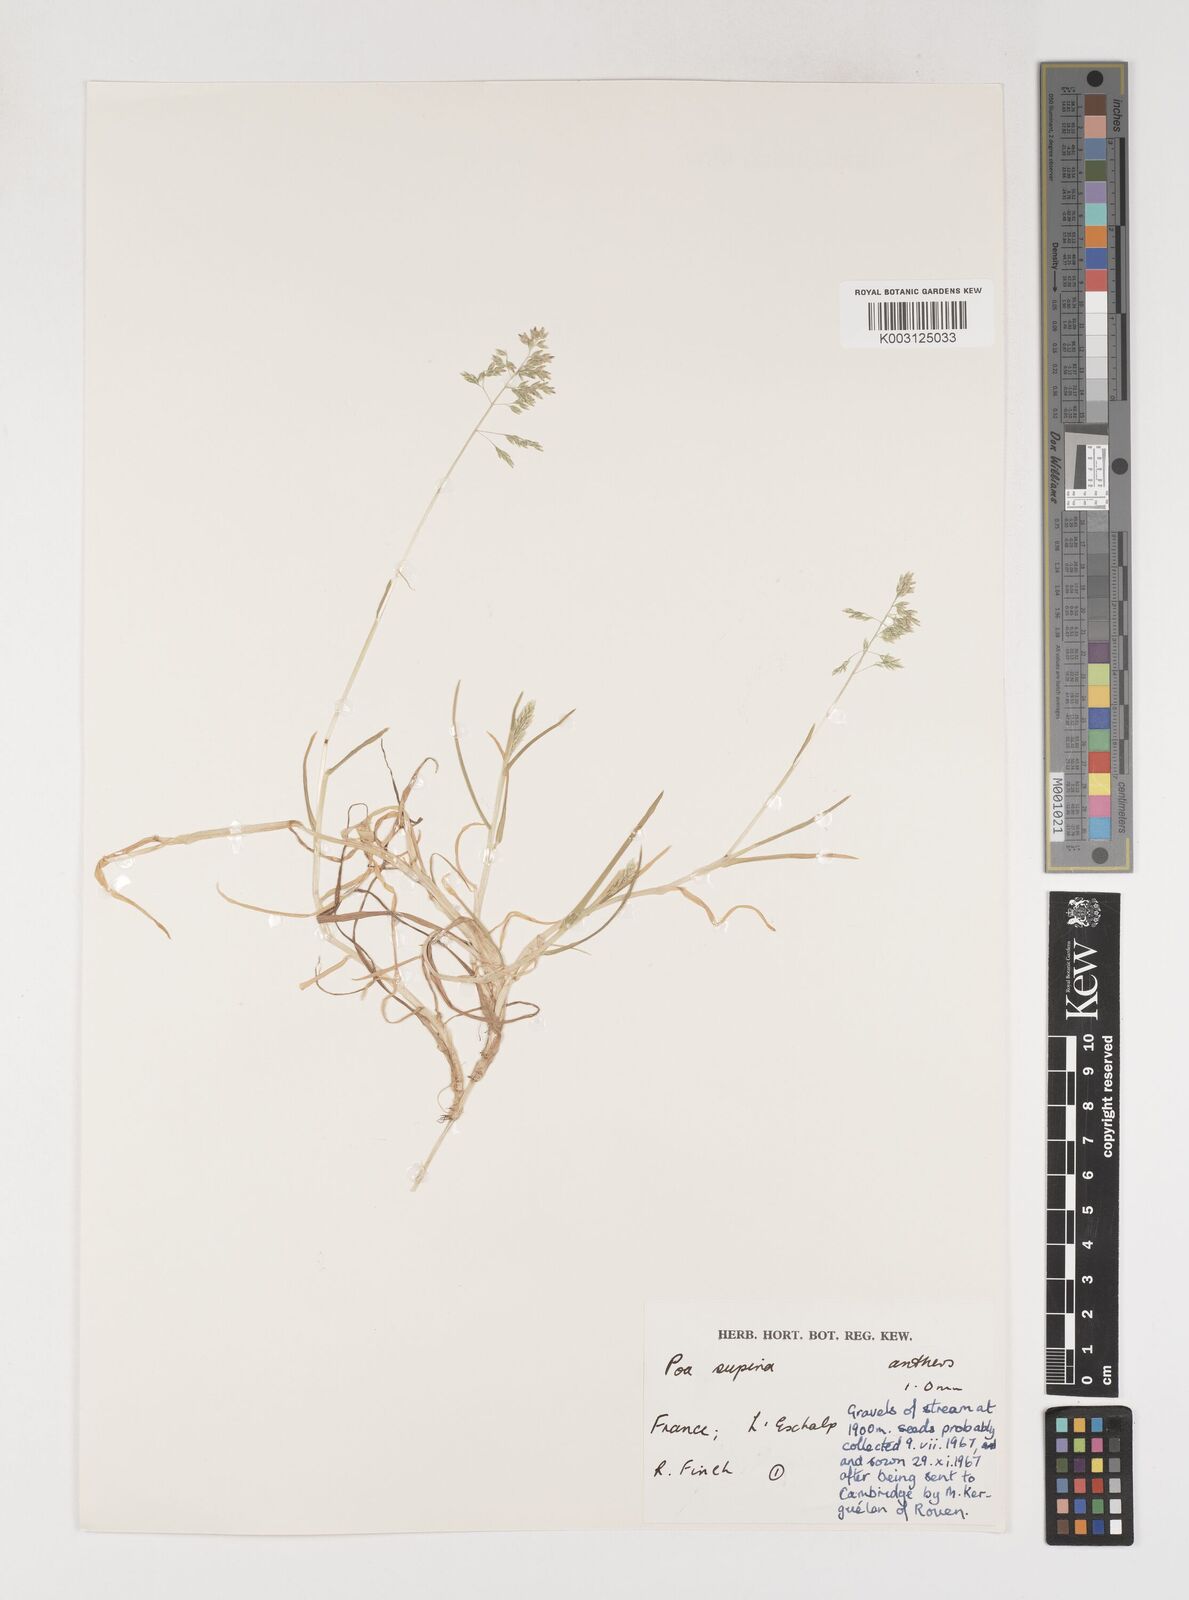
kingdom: Plantae
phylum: Tracheophyta
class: Liliopsida
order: Poales
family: Poaceae
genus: Poa
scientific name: Poa supina
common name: Supina bluegrass
